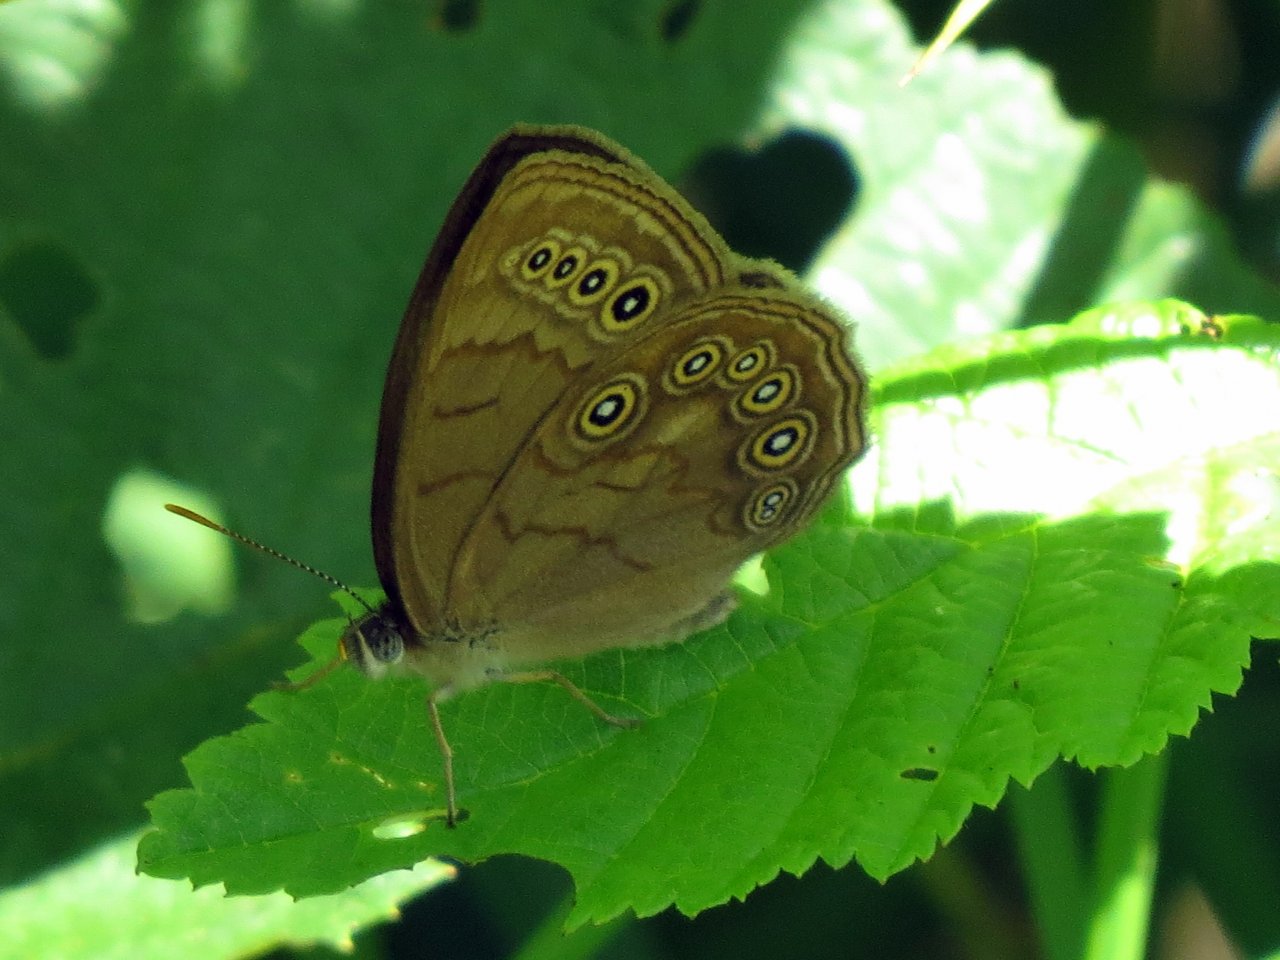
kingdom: Animalia
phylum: Arthropoda
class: Insecta
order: Lepidoptera
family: Nymphalidae
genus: Lethe
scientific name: Lethe eurydice
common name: Eyed Brown
